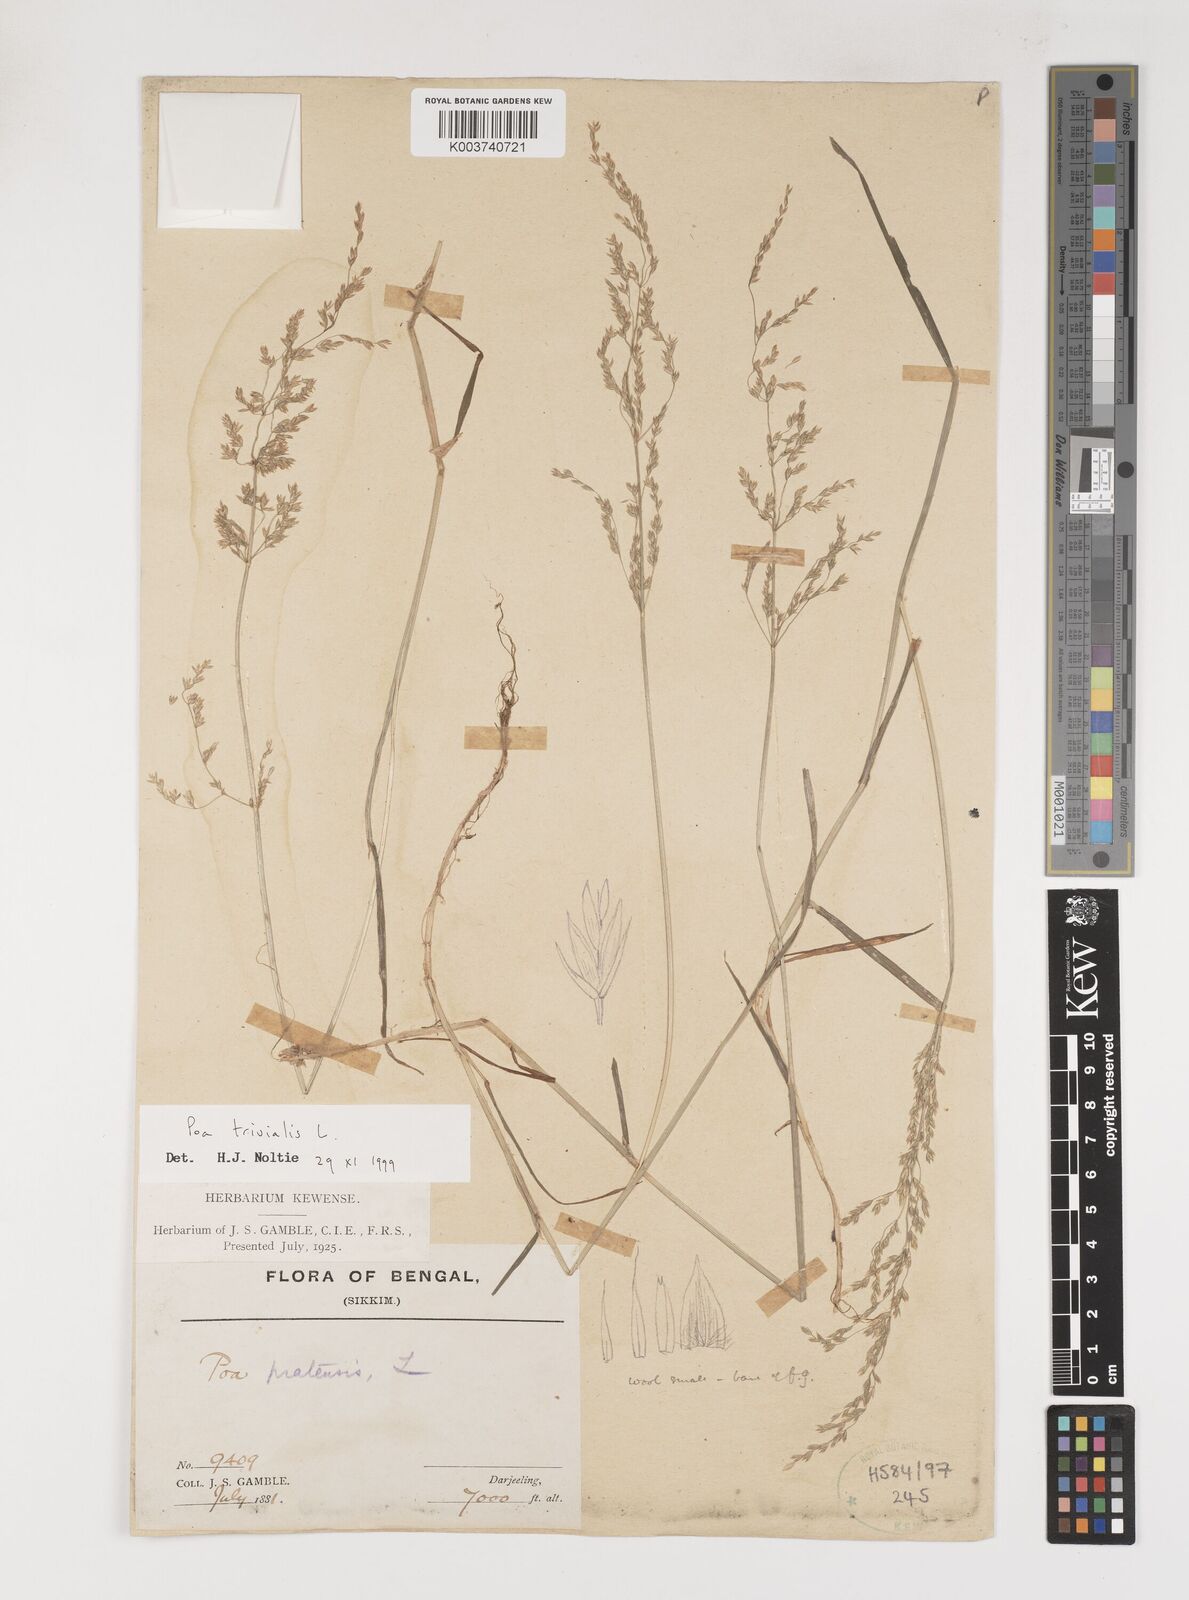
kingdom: Plantae
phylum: Tracheophyta
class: Liliopsida
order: Poales
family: Poaceae
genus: Poa
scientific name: Poa trivialis
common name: Rough bluegrass
